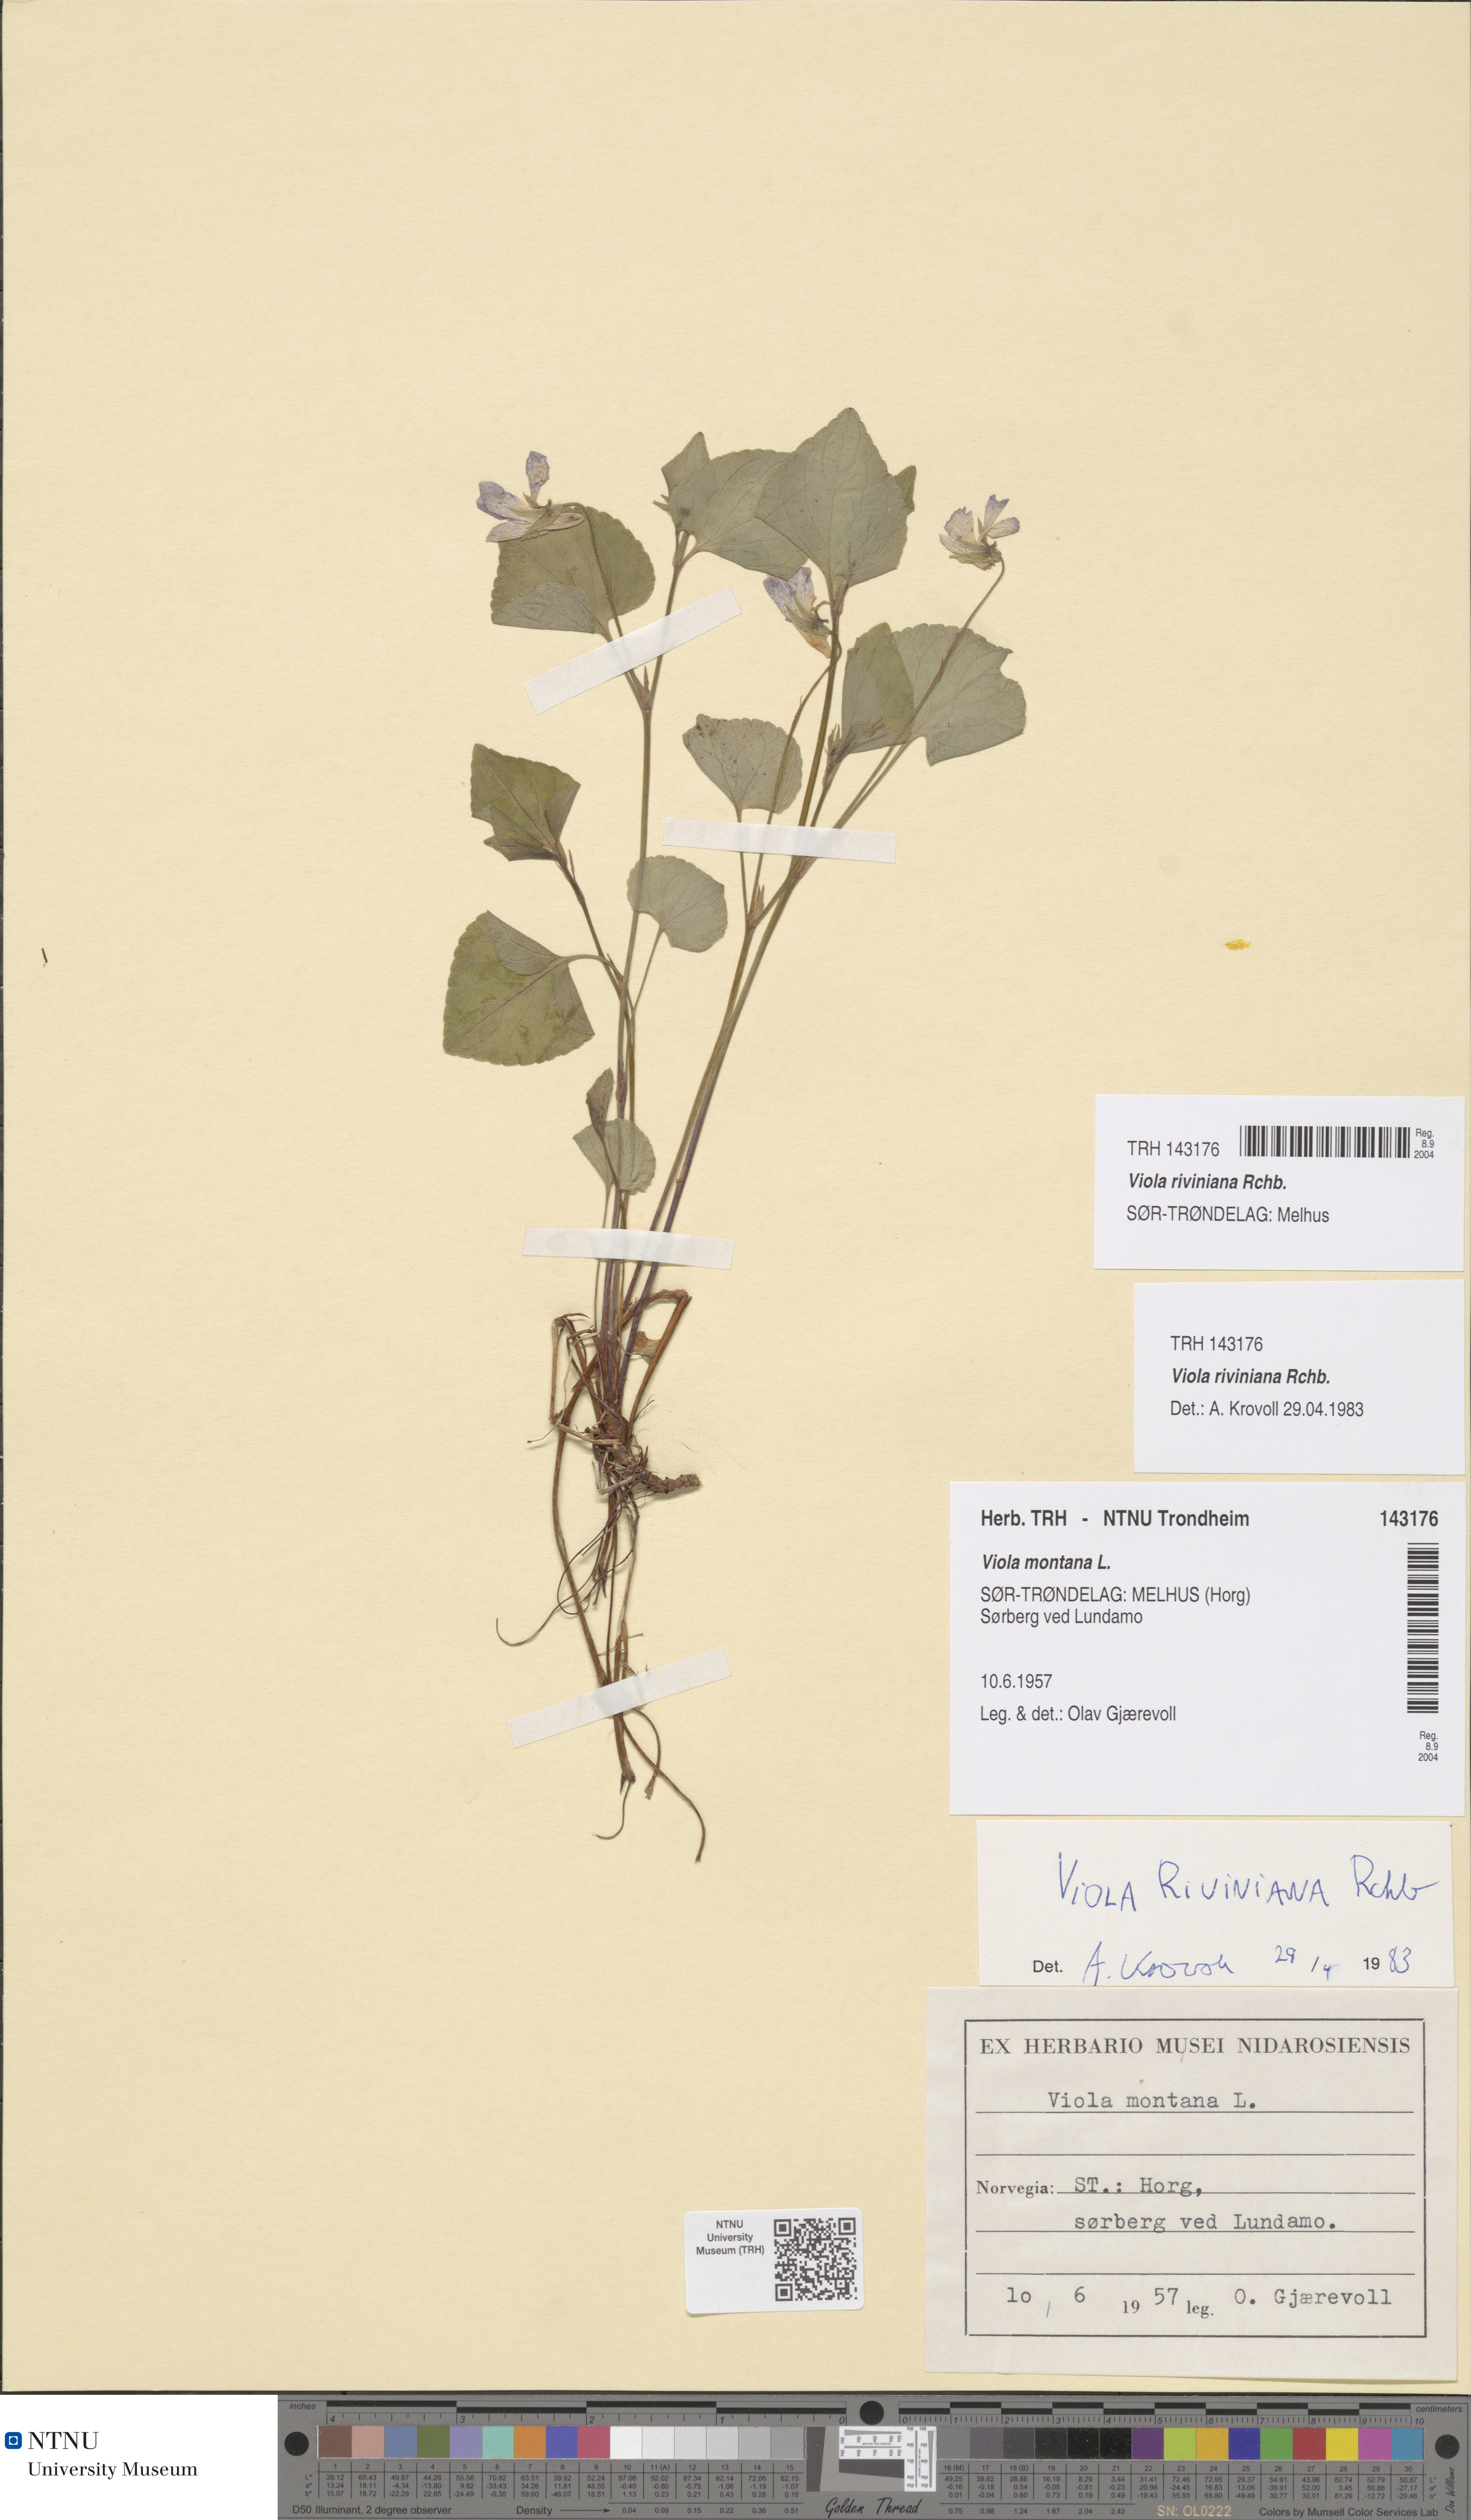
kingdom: Plantae
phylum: Tracheophyta
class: Magnoliopsida
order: Malpighiales
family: Violaceae
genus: Viola
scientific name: Viola riviniana
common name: Common dog-violet
